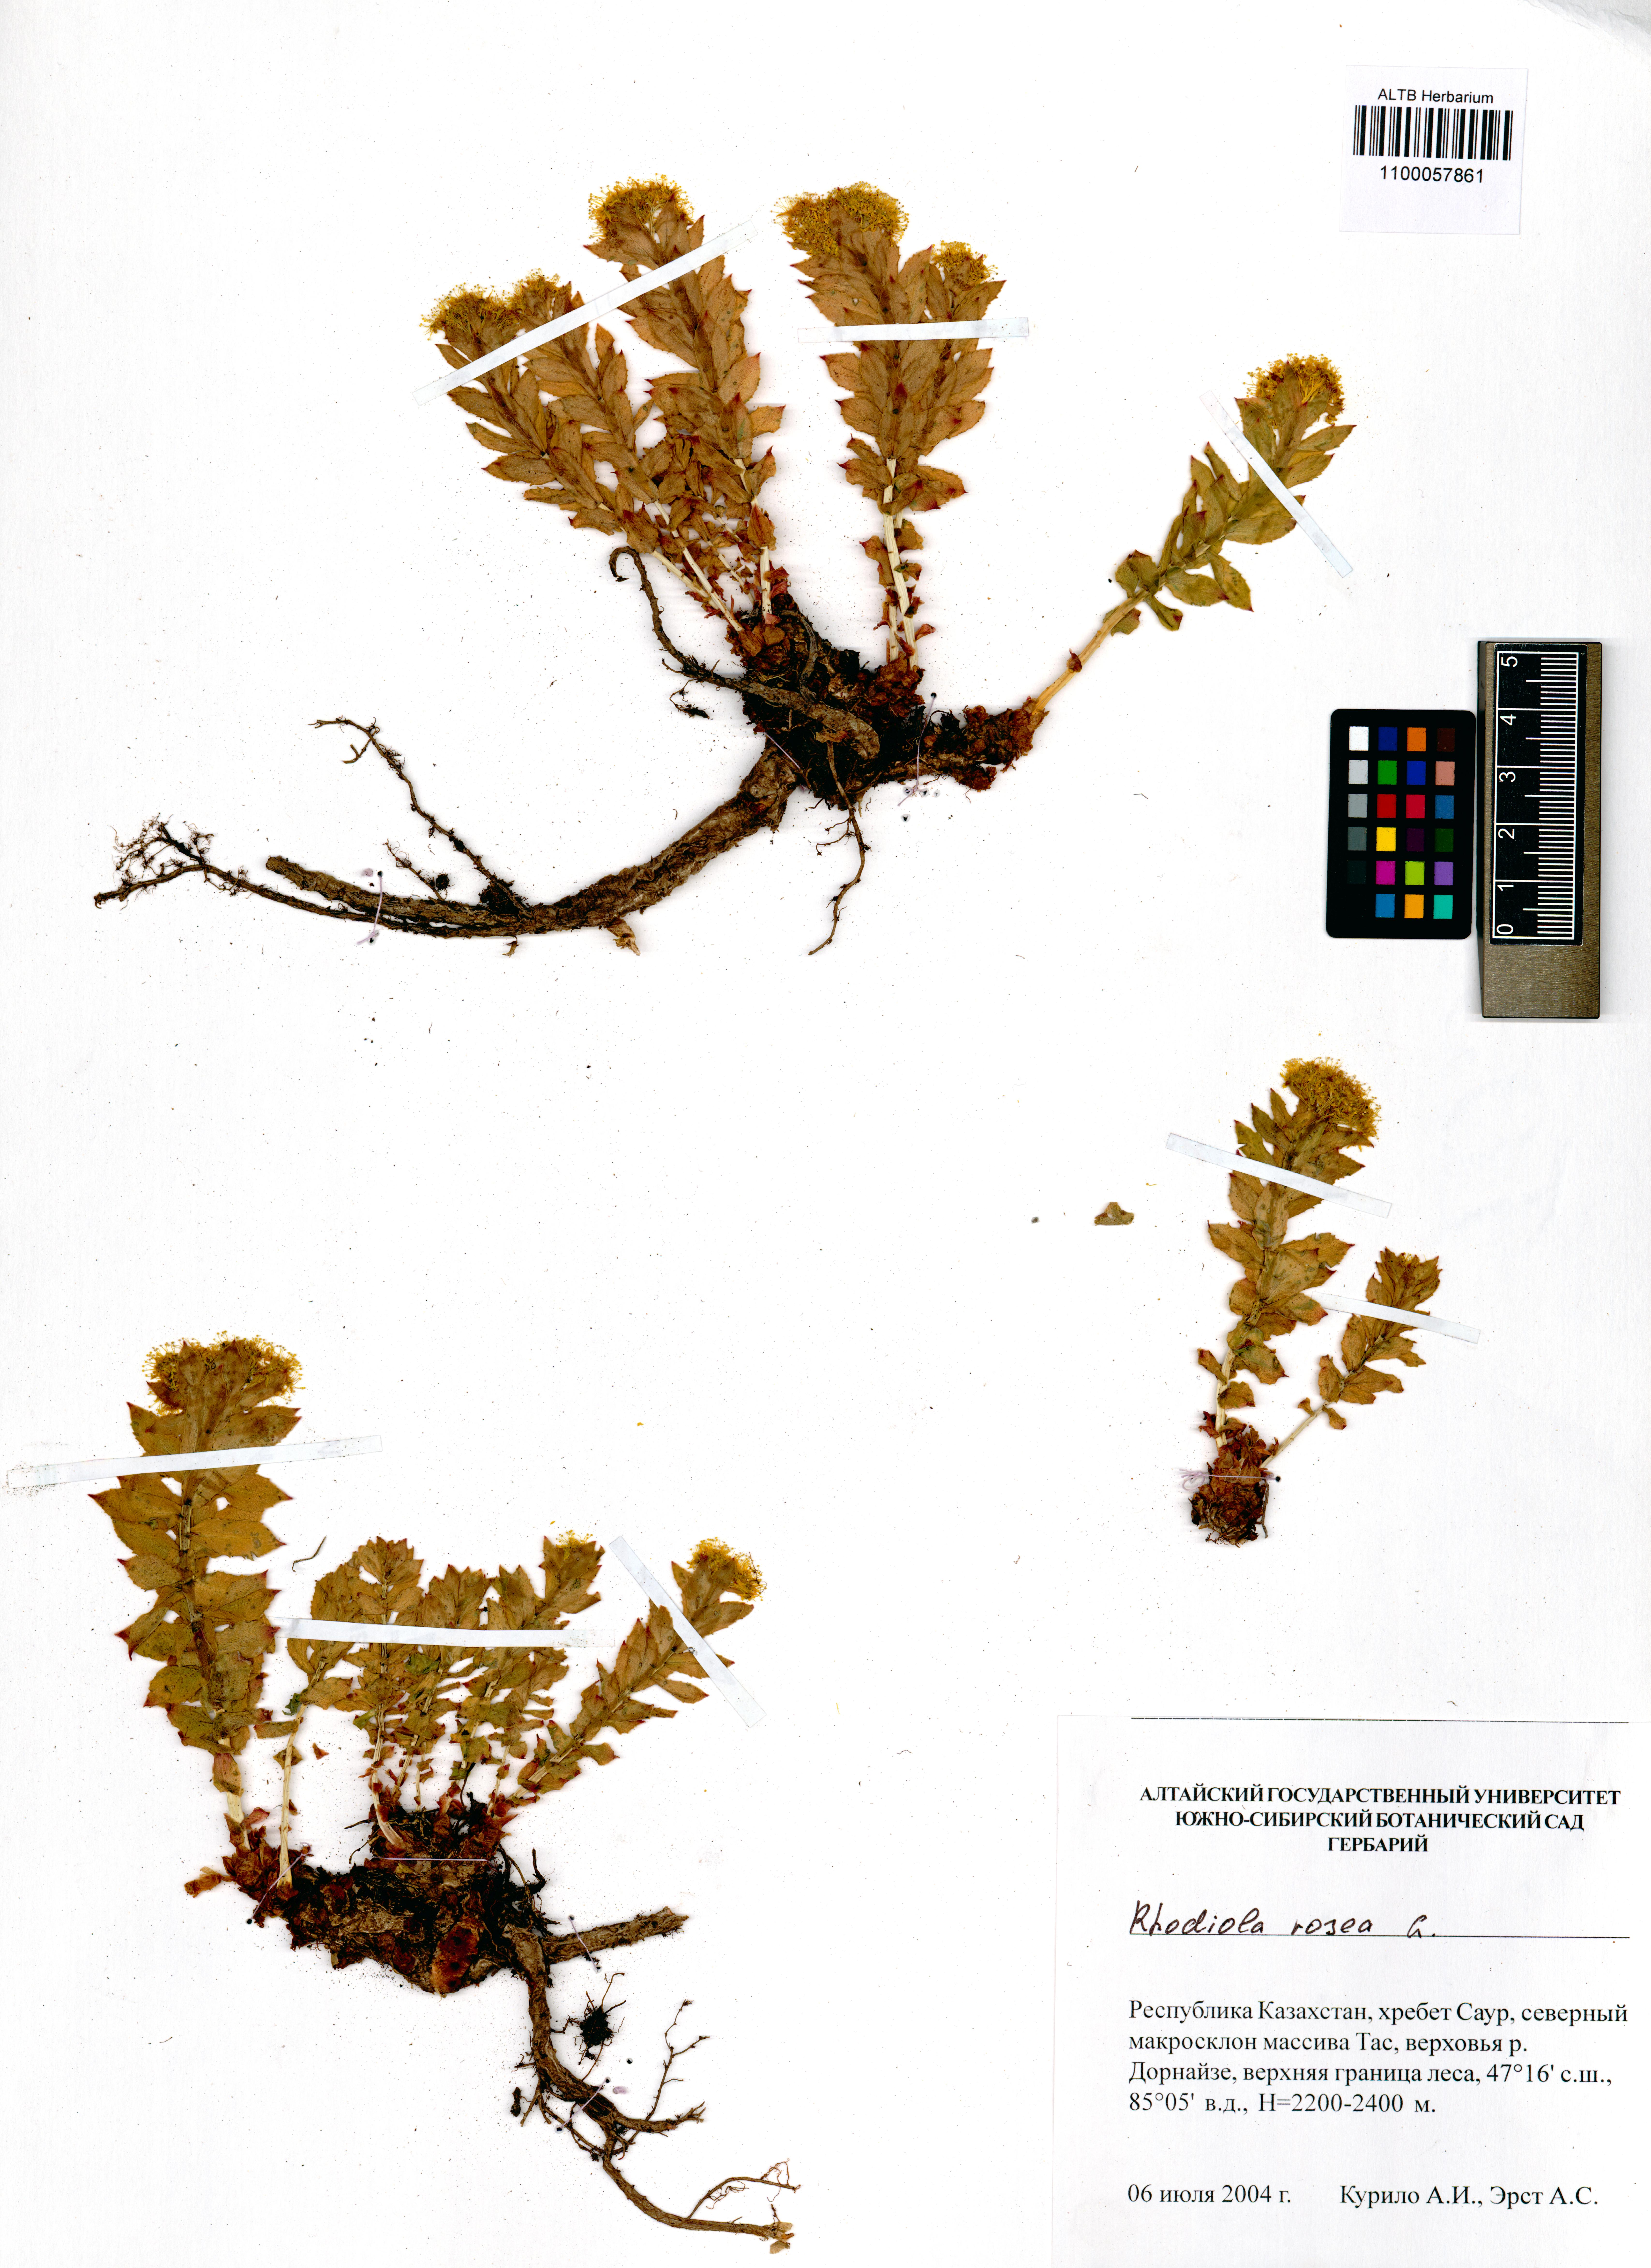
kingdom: Plantae
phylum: Tracheophyta
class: Magnoliopsida
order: Saxifragales
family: Crassulaceae
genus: Rhodiola
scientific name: Rhodiola rosea
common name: Roseroot
